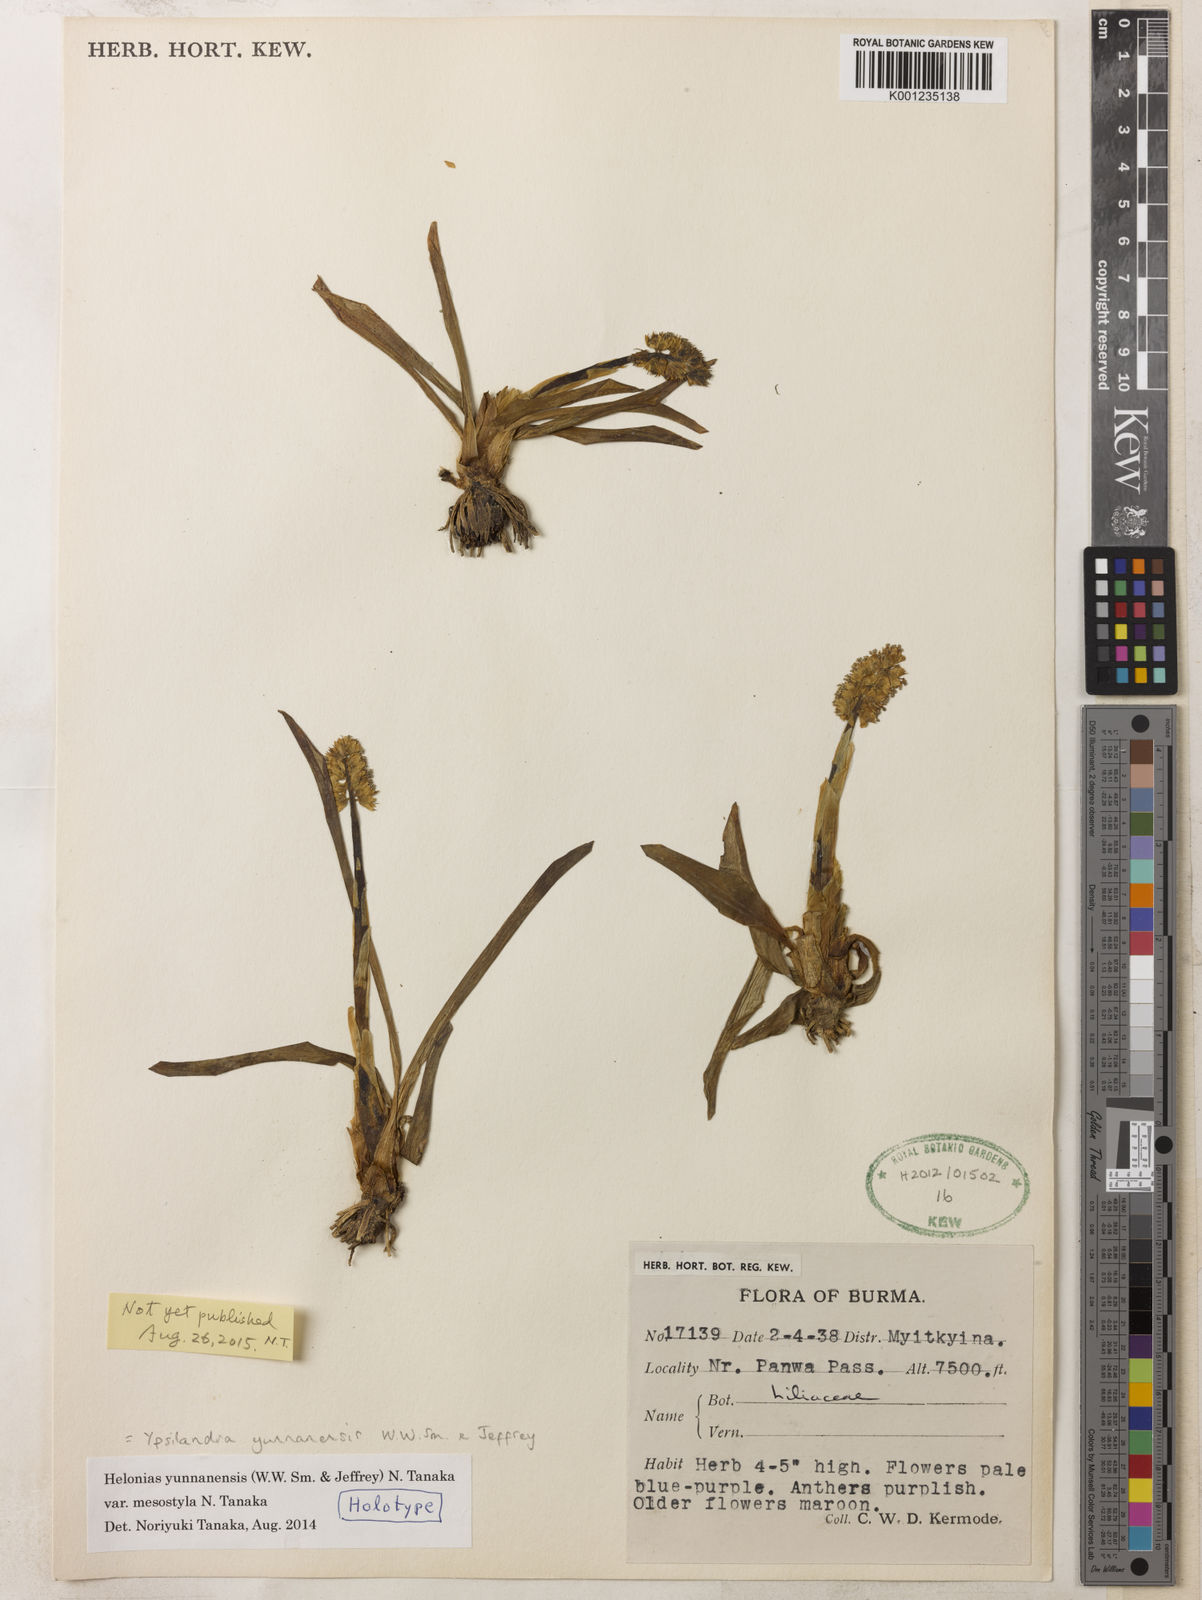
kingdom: Plantae
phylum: Tracheophyta
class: Liliopsida
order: Liliales
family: Melanthiaceae
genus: Helonias
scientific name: Helonias yunnanensis
